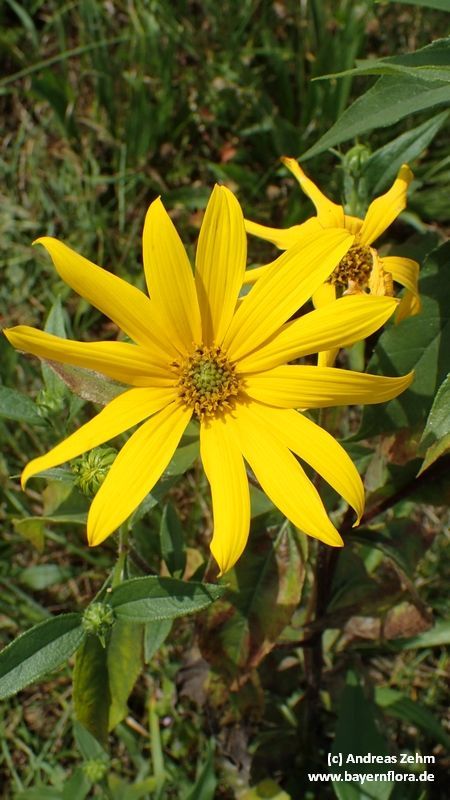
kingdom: Plantae
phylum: Tracheophyta
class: Magnoliopsida
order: Asterales
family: Asteraceae
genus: Helianthus
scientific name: Helianthus tuberosus
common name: Jerusalem artichoke
